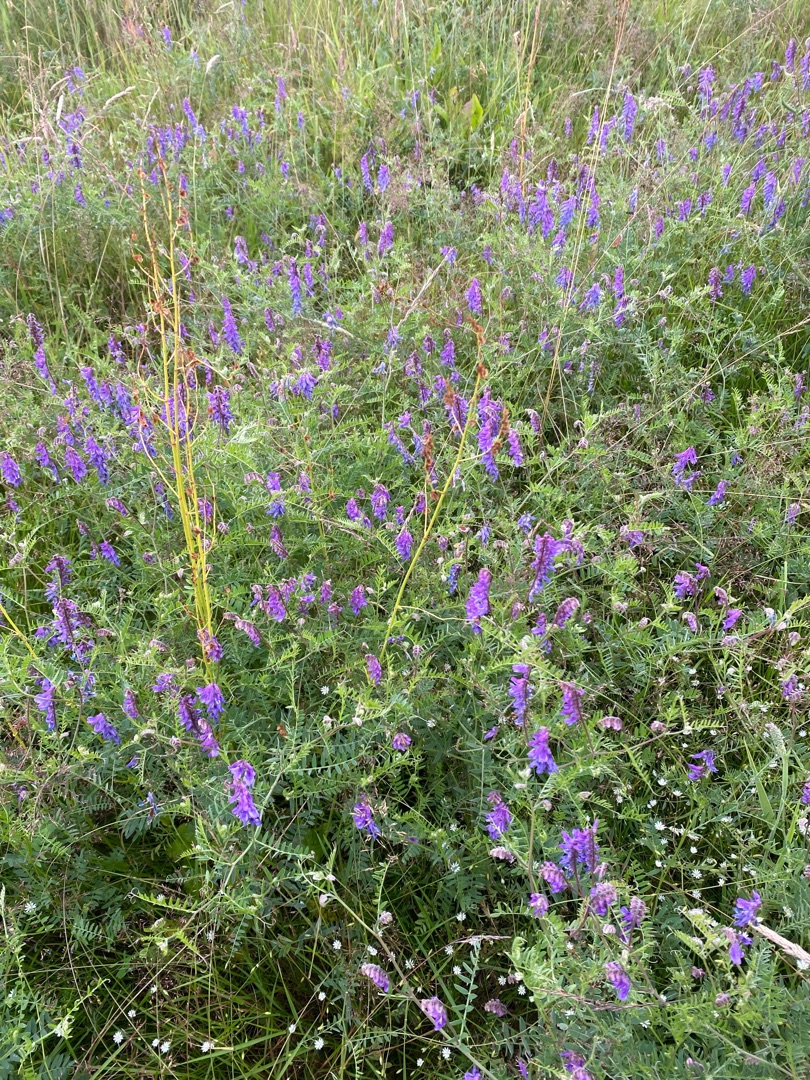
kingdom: Plantae
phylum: Tracheophyta
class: Magnoliopsida
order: Fabales
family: Fabaceae
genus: Vicia
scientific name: Vicia cracca
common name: Muse-vikke
